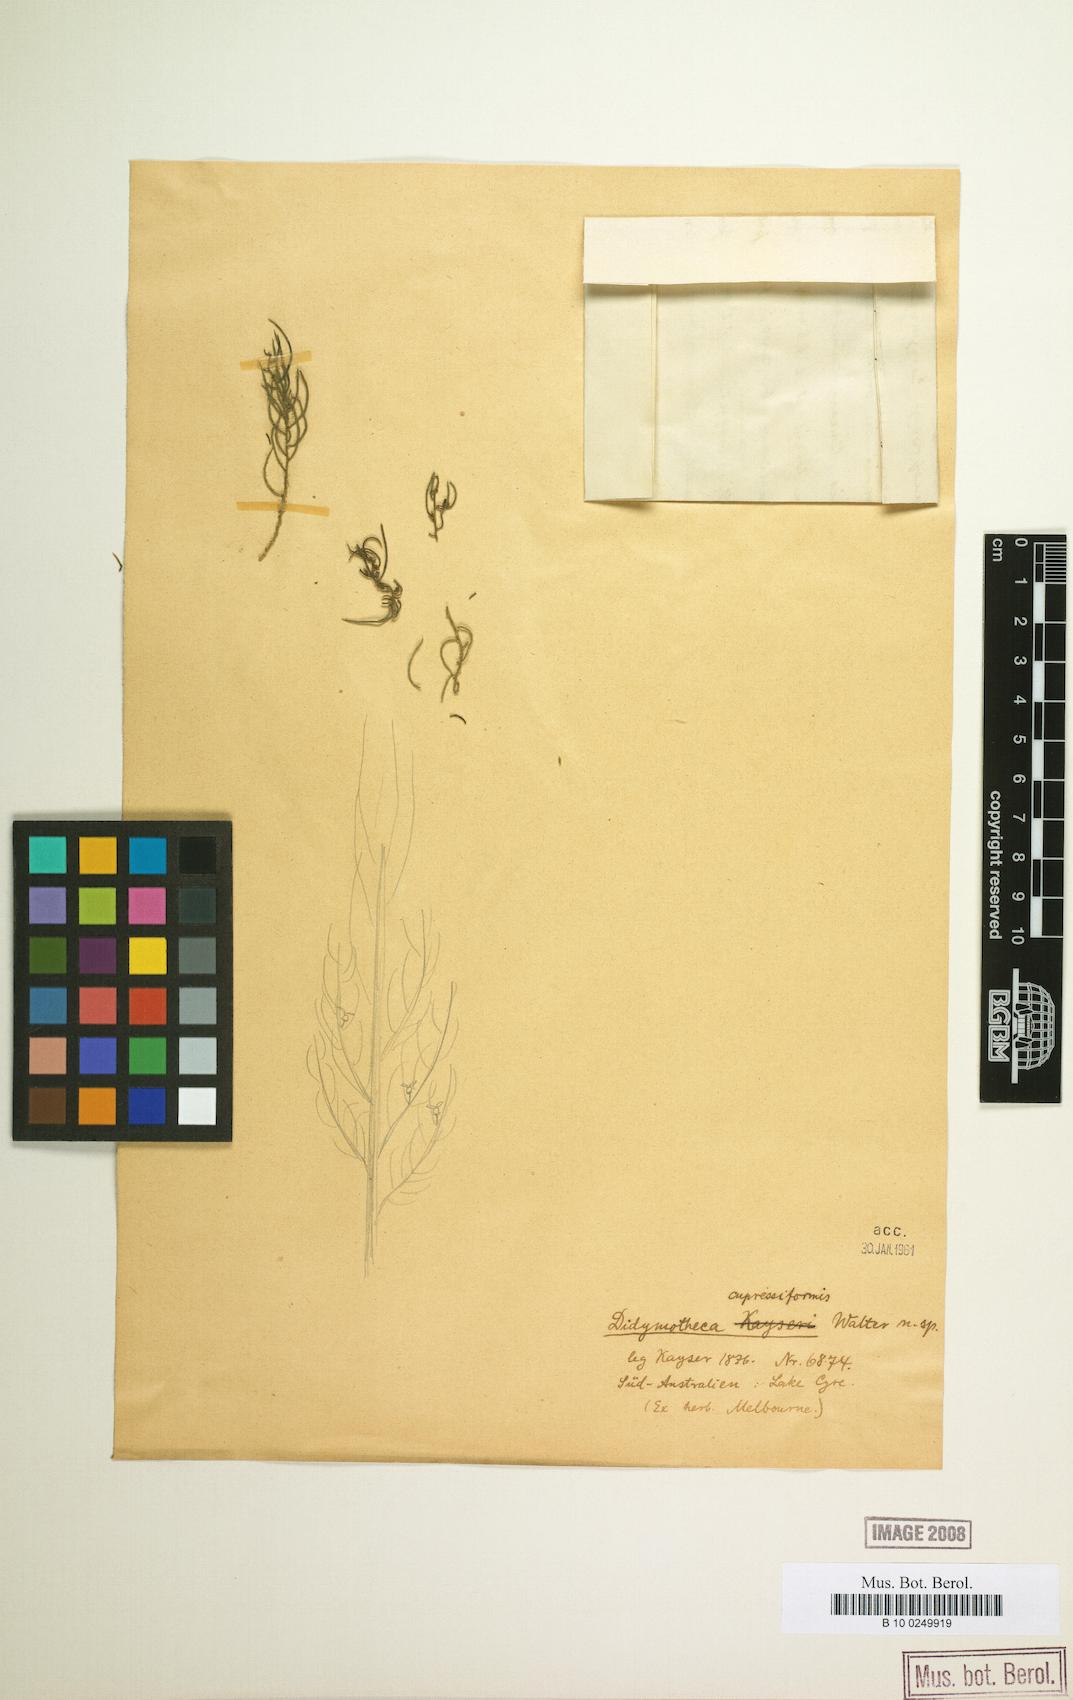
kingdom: Plantae
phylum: Tracheophyta
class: Magnoliopsida
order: Brassicales
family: Gyrostemonaceae
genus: Gyrostemon
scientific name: Gyrostemon tepperi
